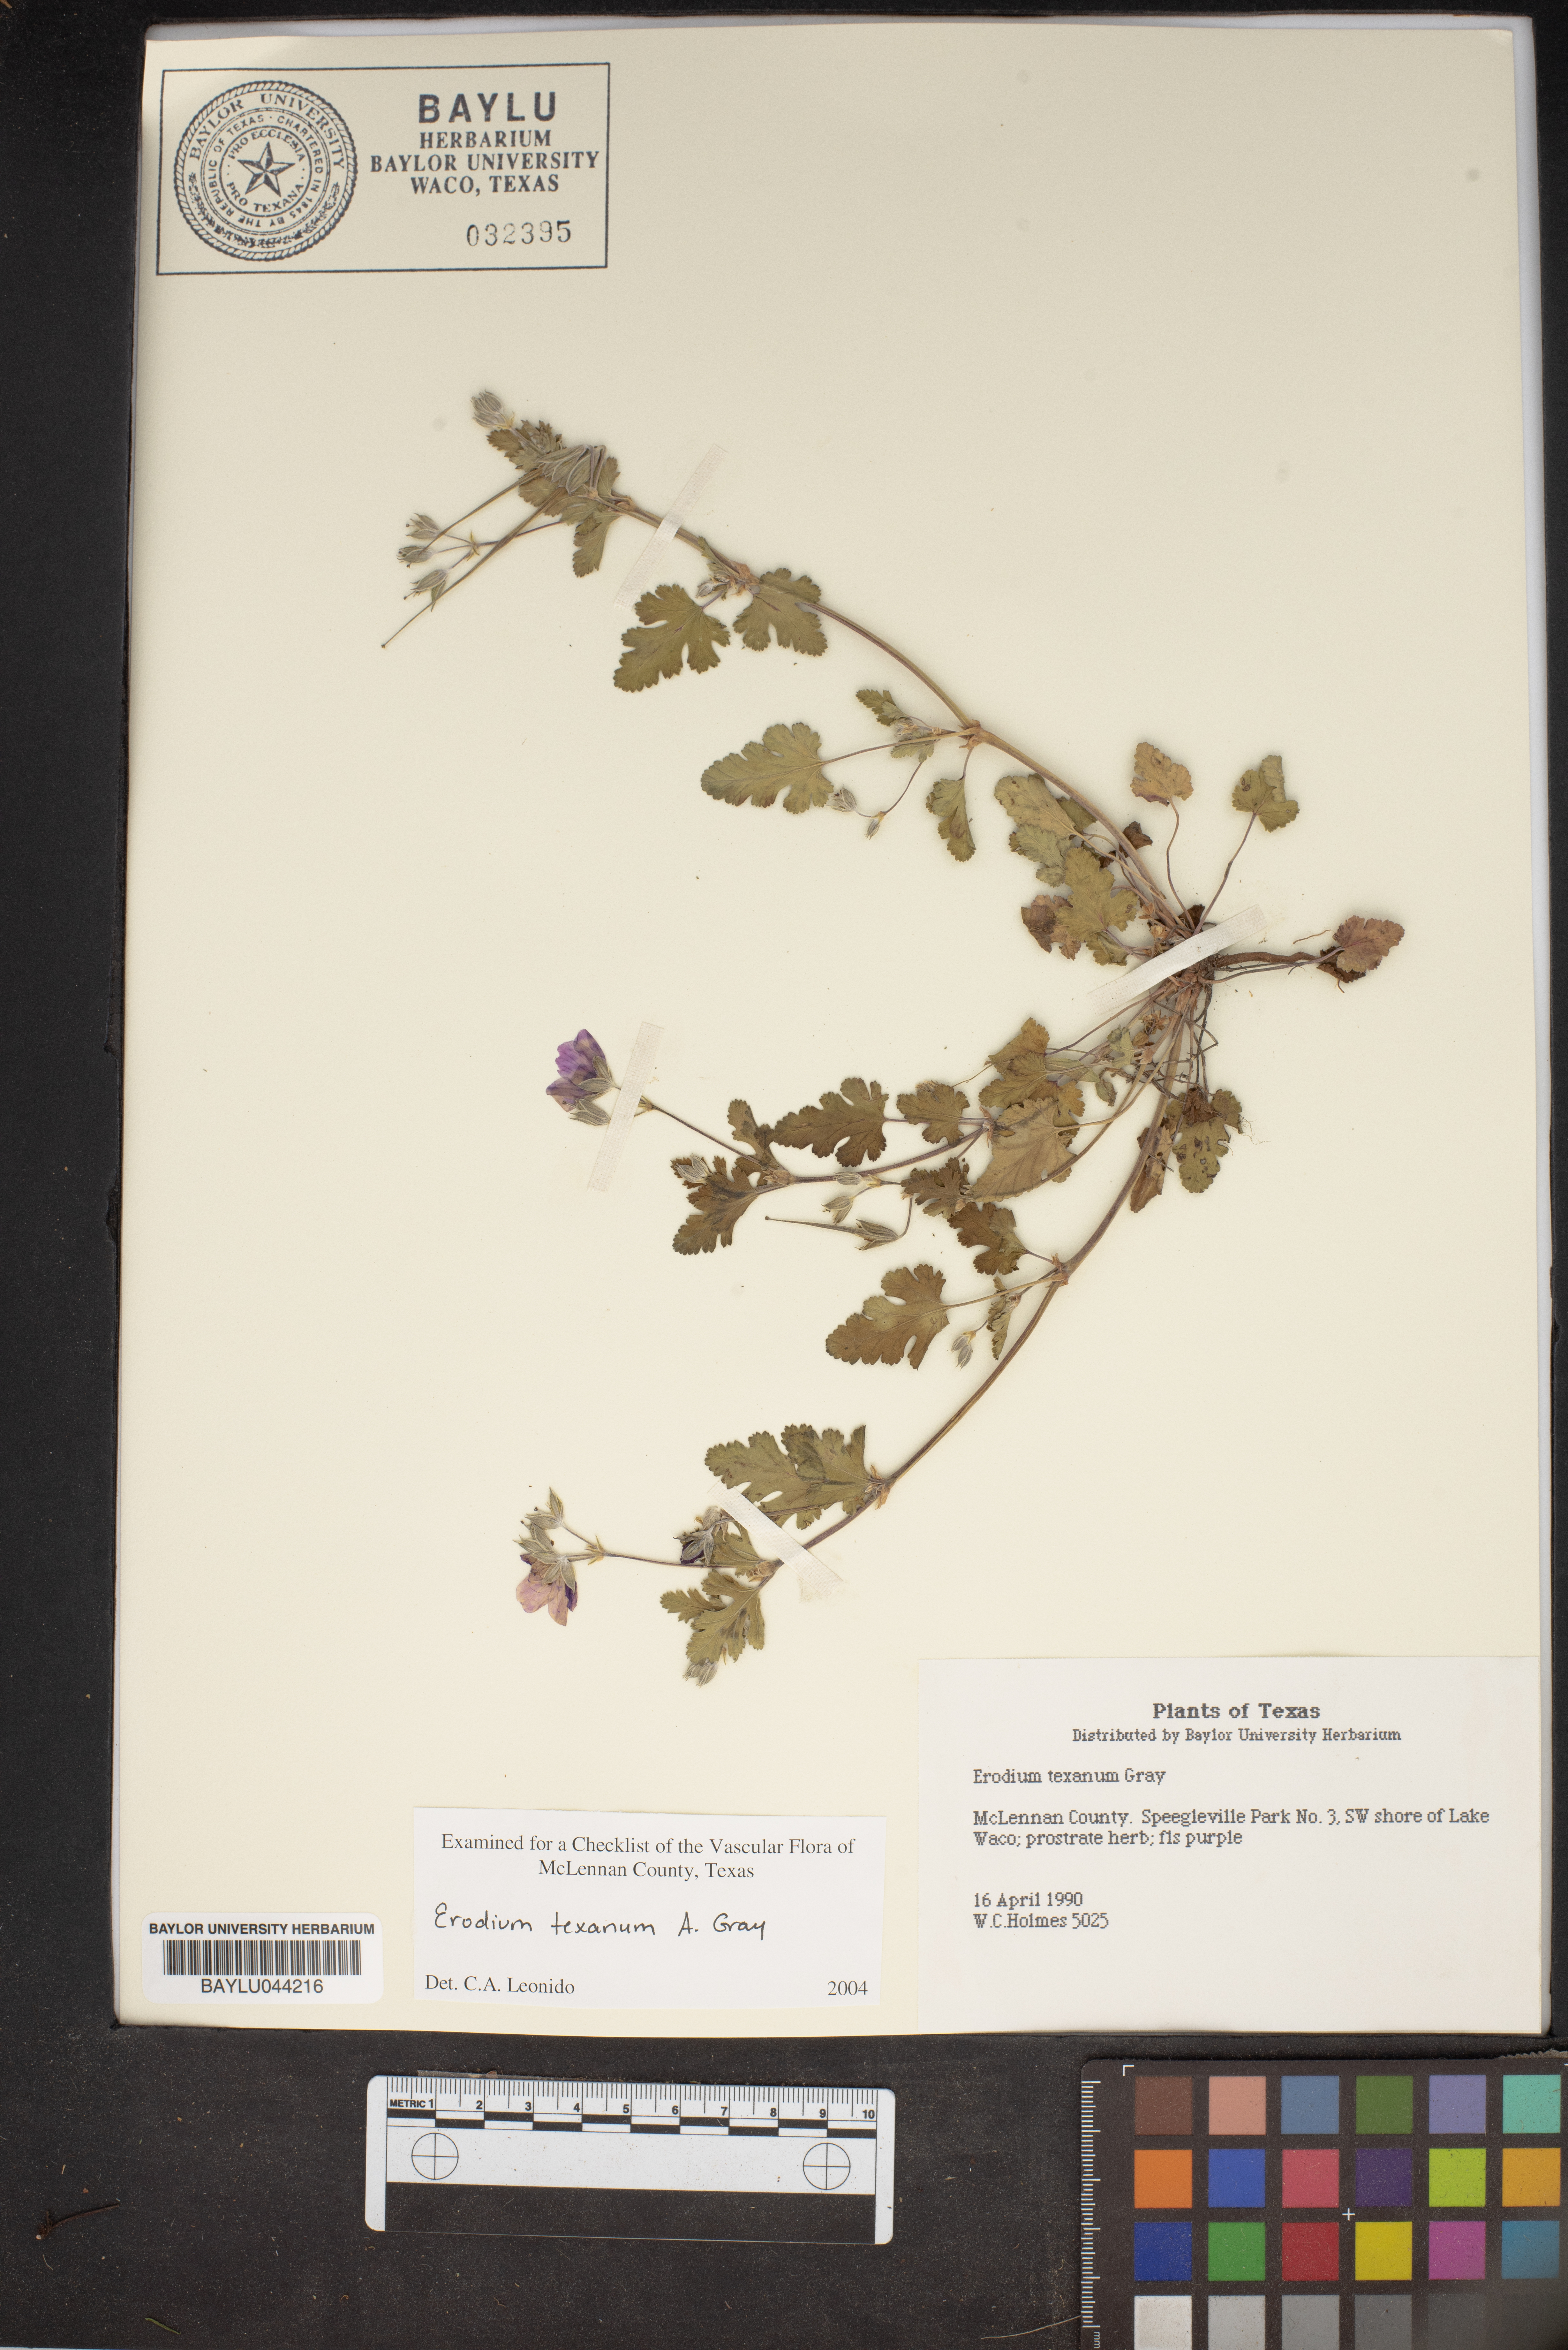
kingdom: Plantae
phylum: Tracheophyta
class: Magnoliopsida
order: Geraniales
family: Geraniaceae
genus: Erodium
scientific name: Erodium texanum
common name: Texas stork's-bill
